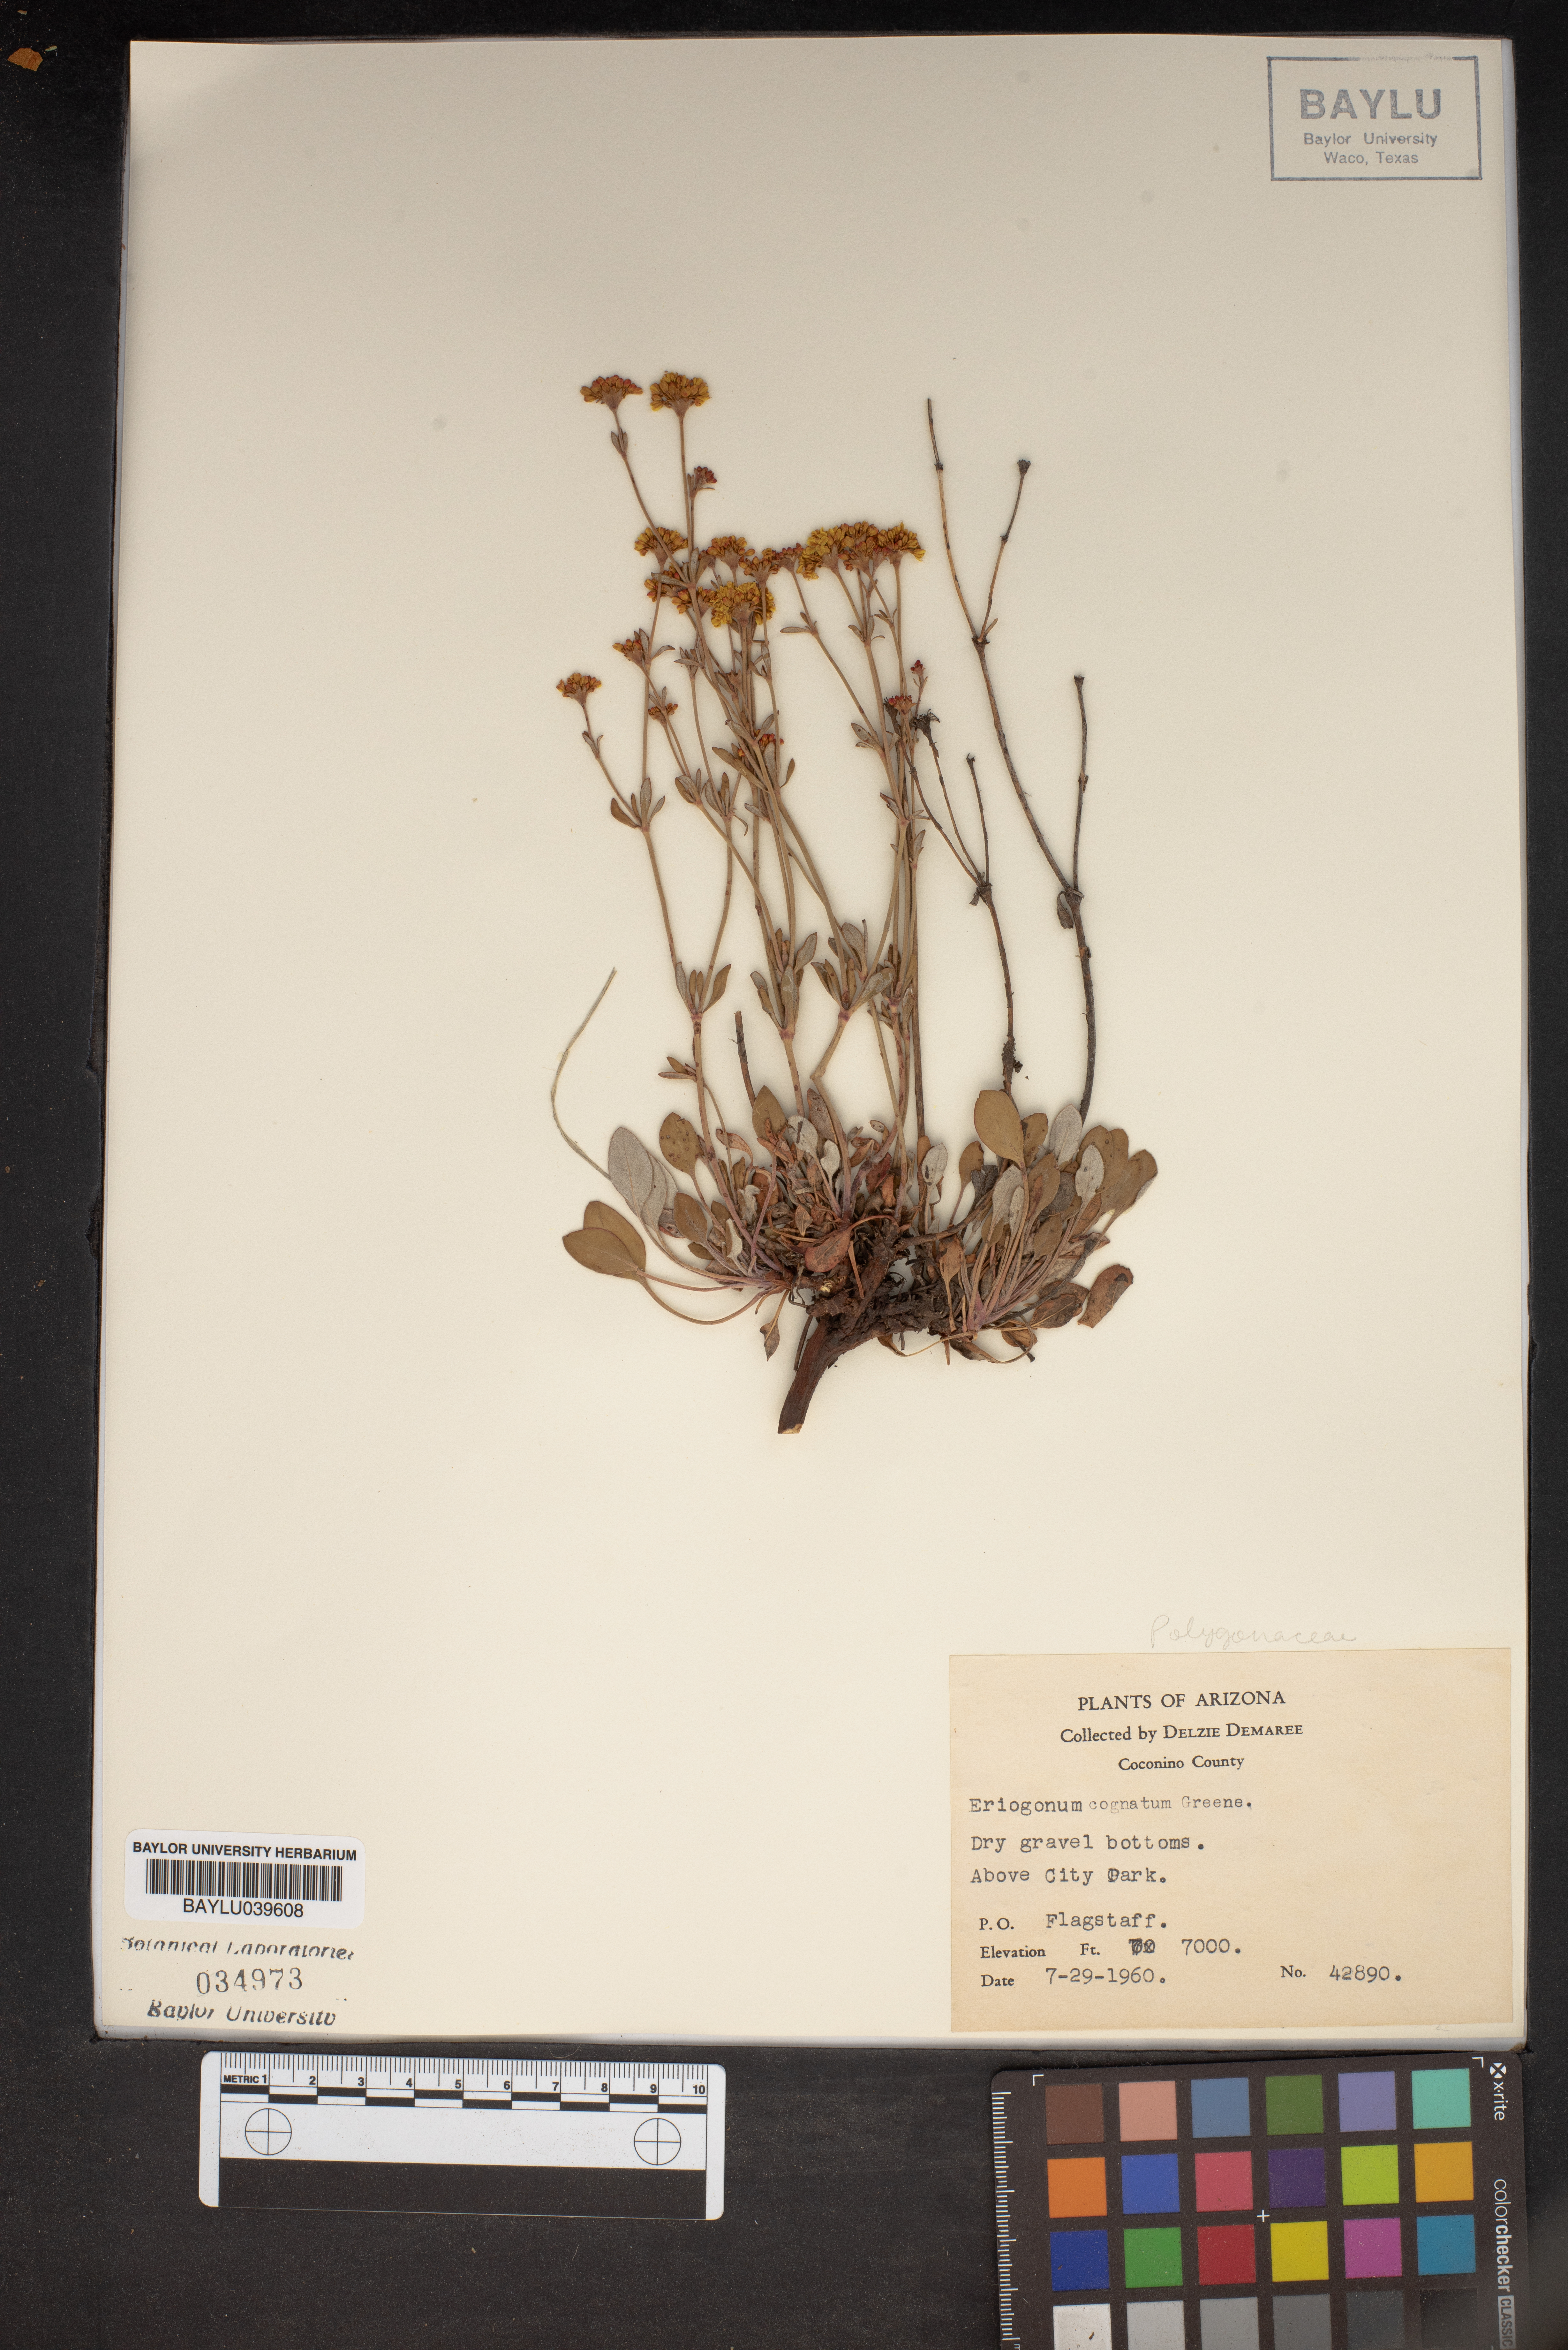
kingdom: Plantae
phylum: Tracheophyta
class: Magnoliopsida
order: Caryophyllales
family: Polygonaceae
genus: Eriogonum
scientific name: Eriogonum umbellatum
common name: Sulfur-buckwheat
